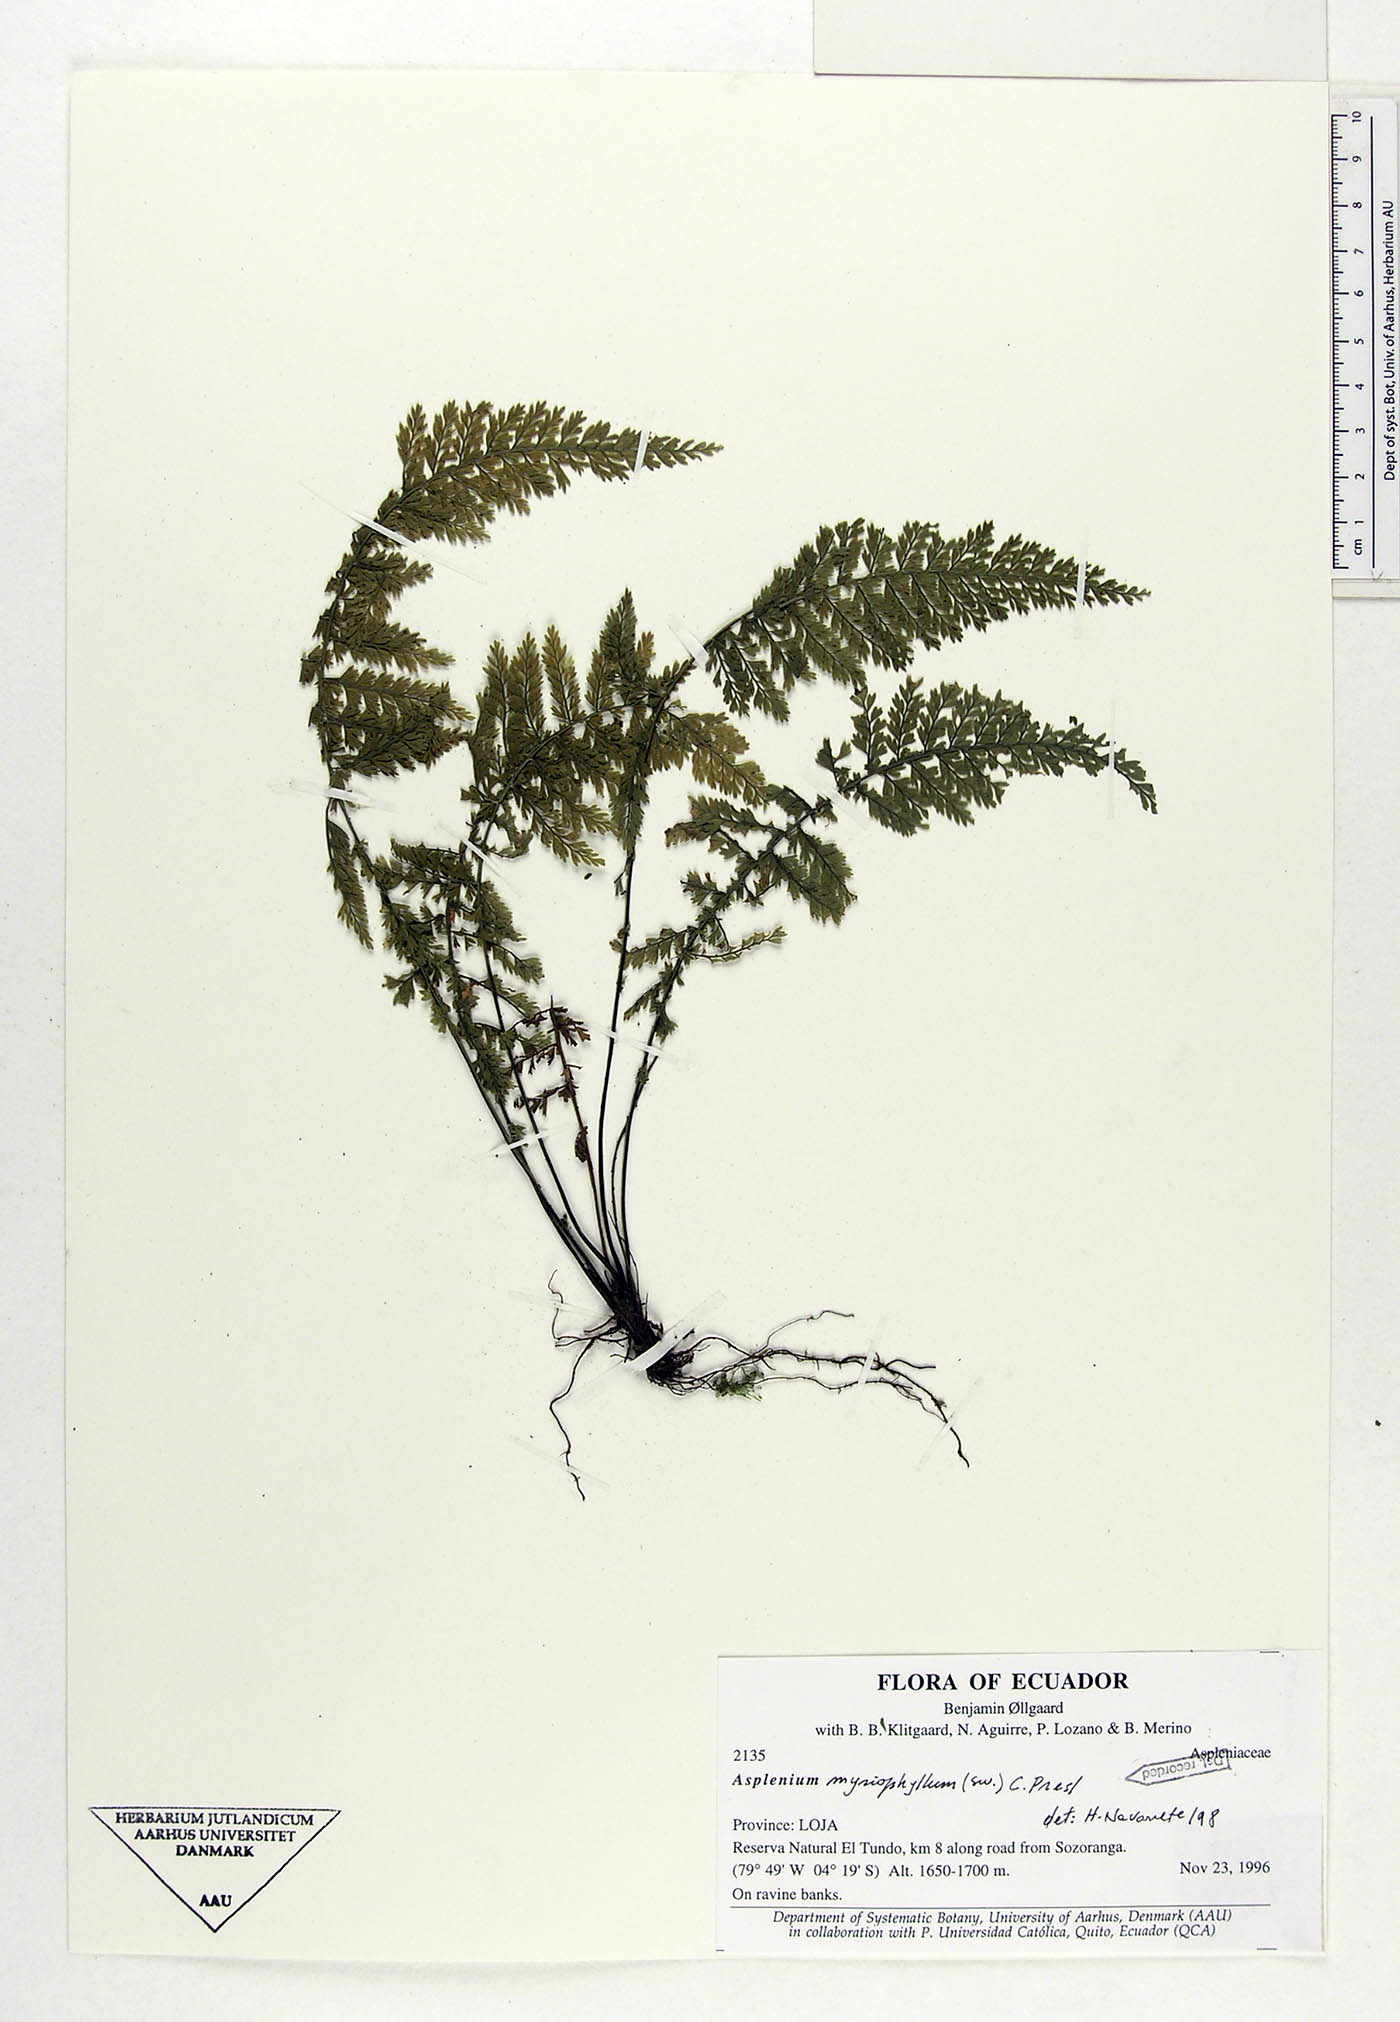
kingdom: Plantae
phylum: Tracheophyta
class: Polypodiopsida
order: Polypodiales
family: Aspleniaceae
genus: Asplenium
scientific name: Asplenium myriophyllum
